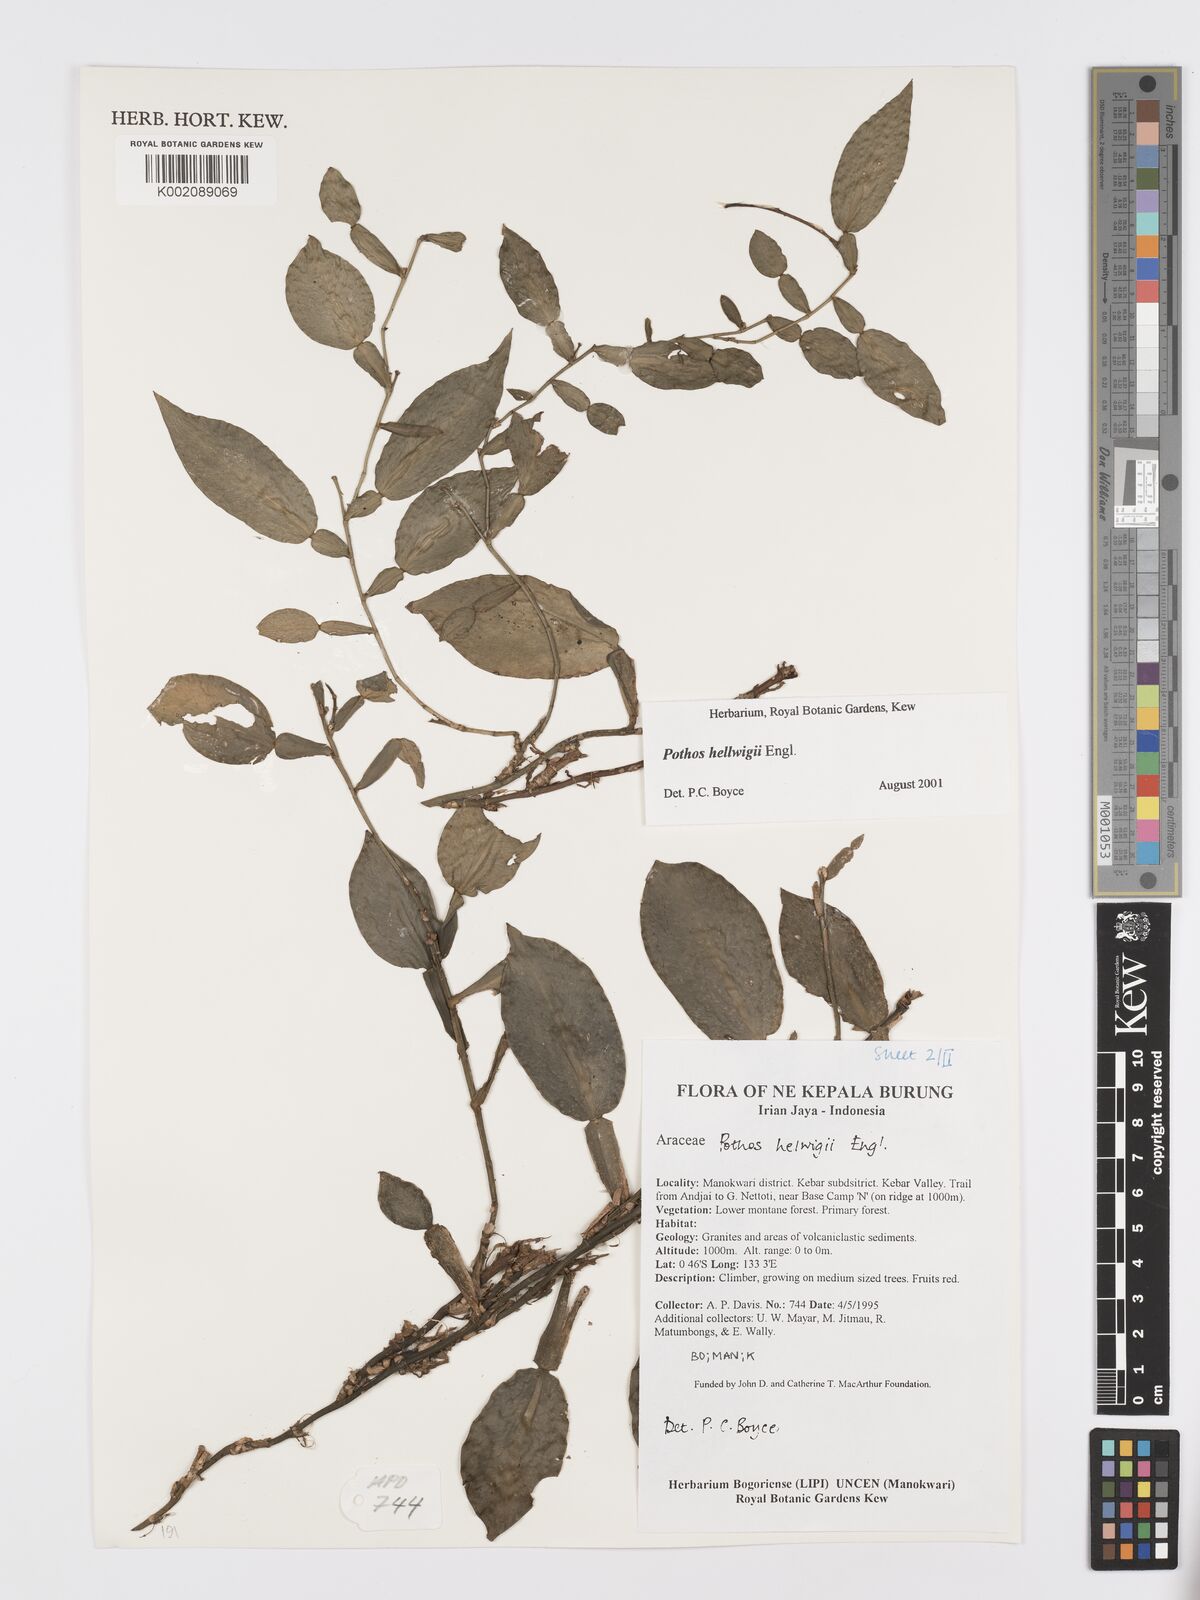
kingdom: Plantae
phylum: Tracheophyta
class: Liliopsida
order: Alismatales
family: Araceae
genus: Pothos
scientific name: Pothos hellwigii
